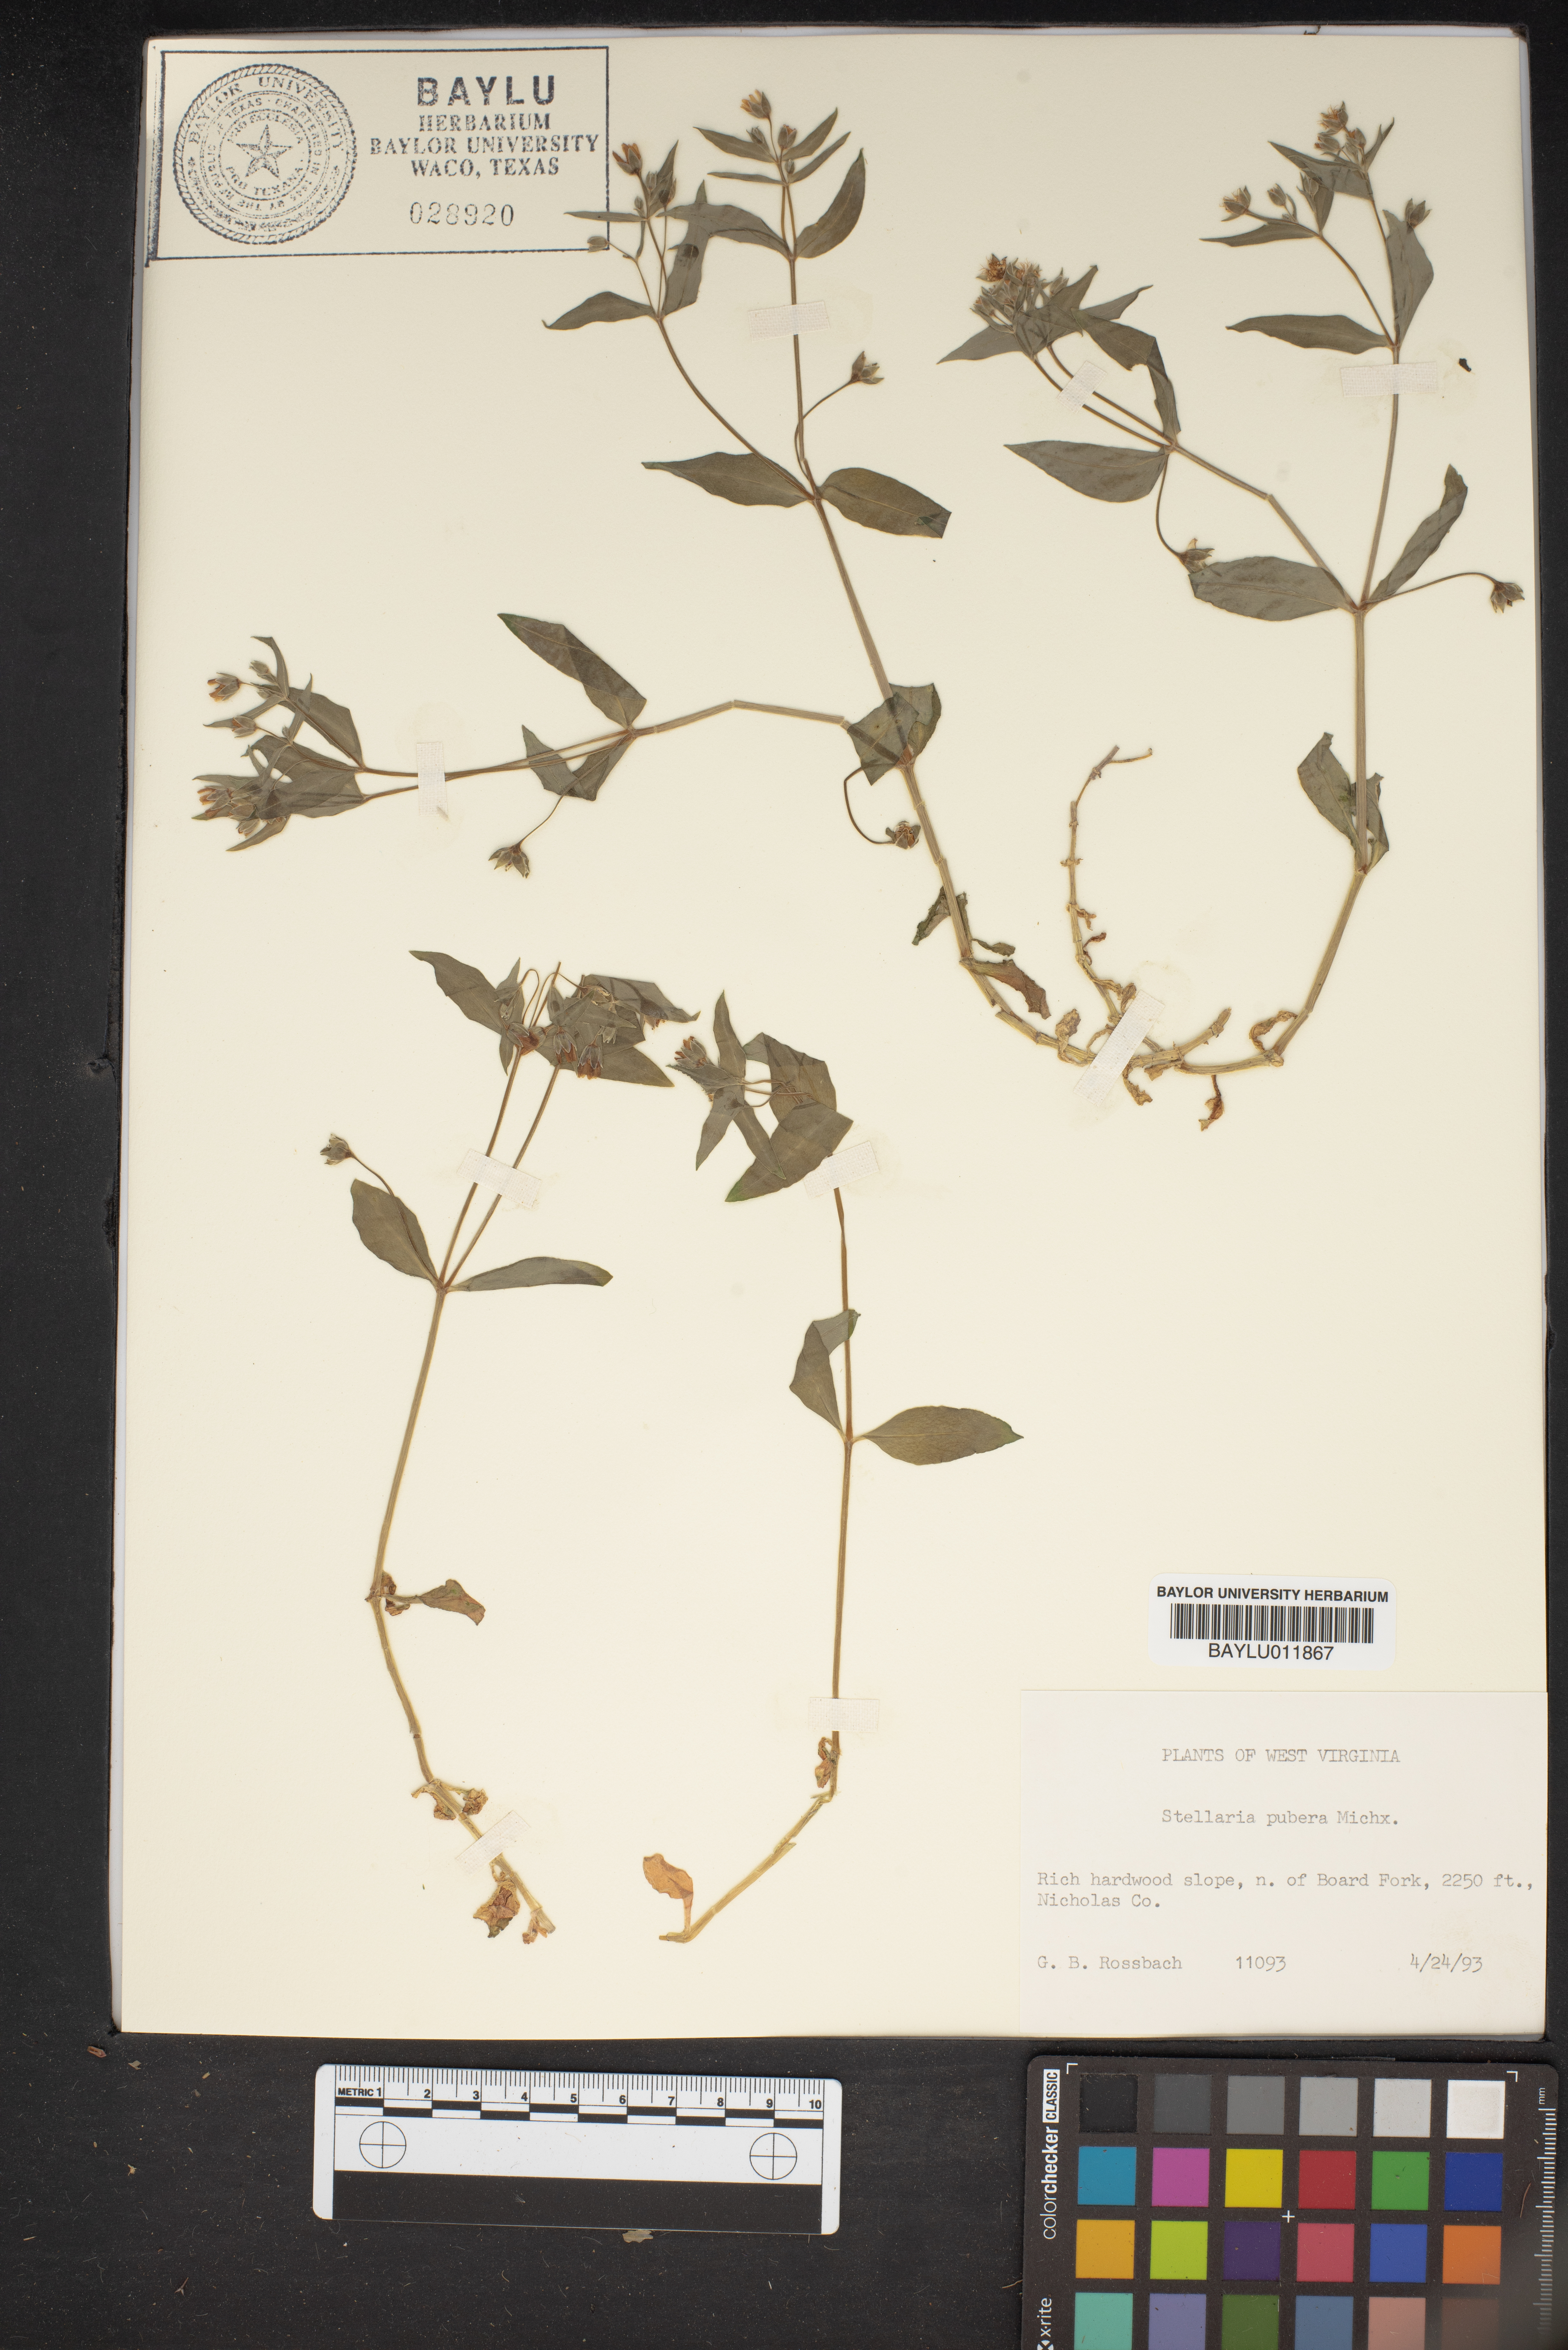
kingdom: Plantae
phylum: Tracheophyta
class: Magnoliopsida
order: Caryophyllales
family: Caryophyllaceae
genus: Stellaria
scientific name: Stellaria pubera
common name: Star chickweed
